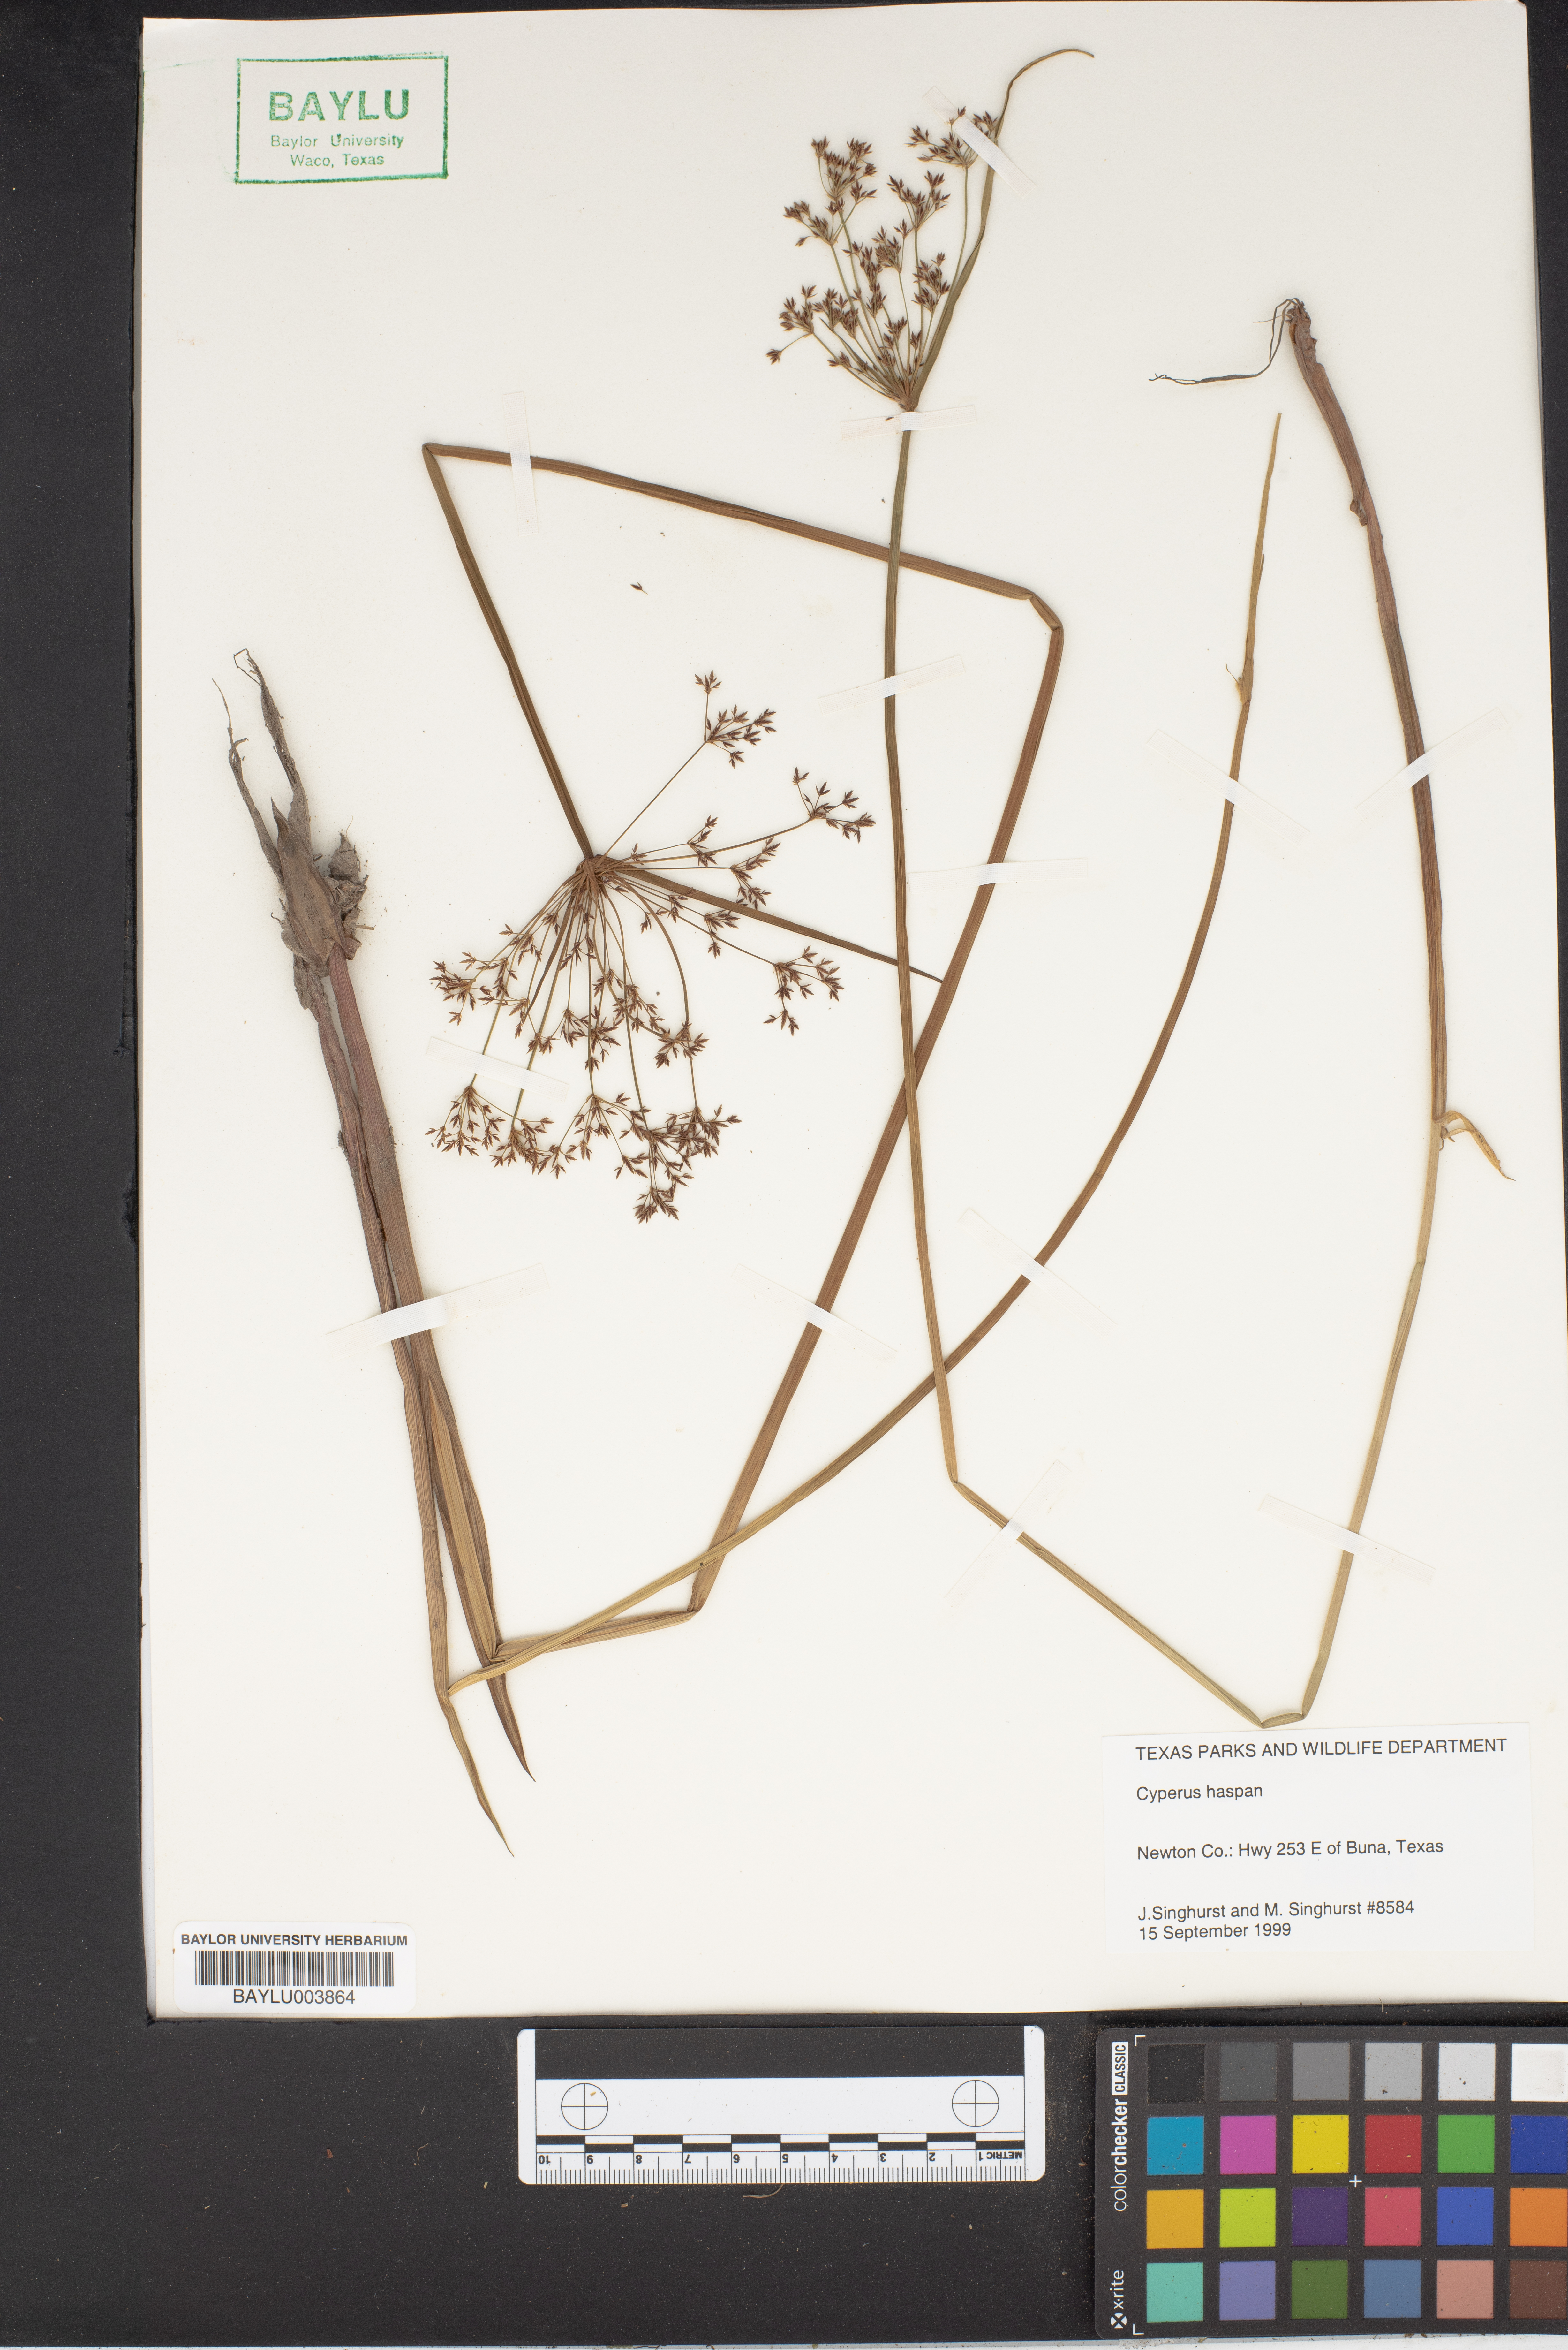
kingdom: Plantae
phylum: Tracheophyta
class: Liliopsida
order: Poales
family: Cyperaceae
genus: Cyperus
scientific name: Cyperus haspan
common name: Haspan flatsedge
